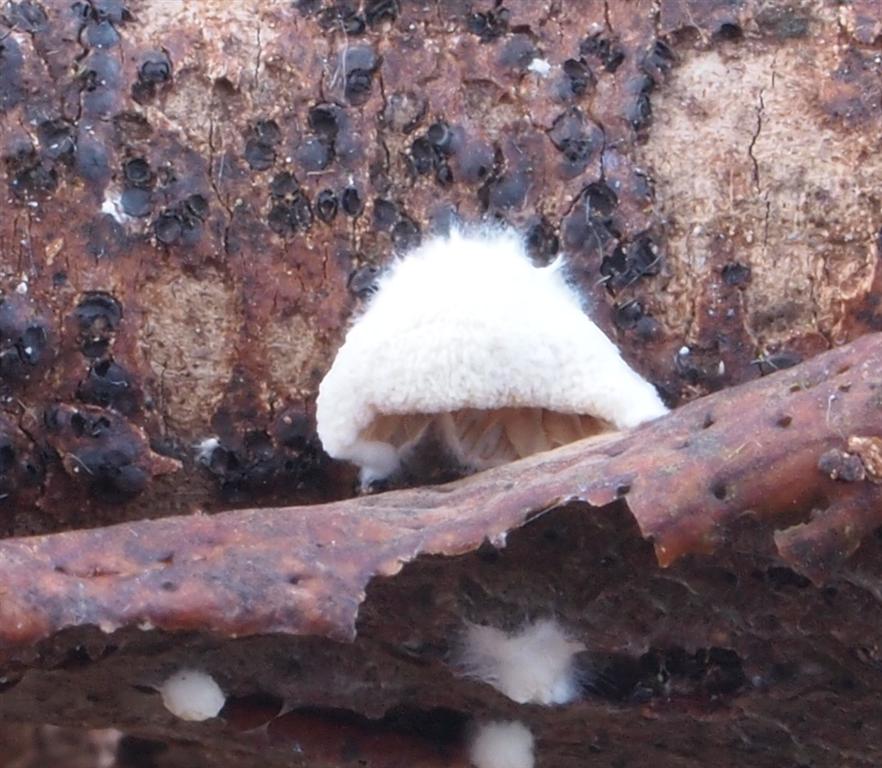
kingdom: Fungi
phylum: Basidiomycota
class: Agaricomycetes
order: Agaricales
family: Crepidotaceae
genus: Crepidotus
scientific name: Crepidotus cesatii
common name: almindelig muslingesvamp
